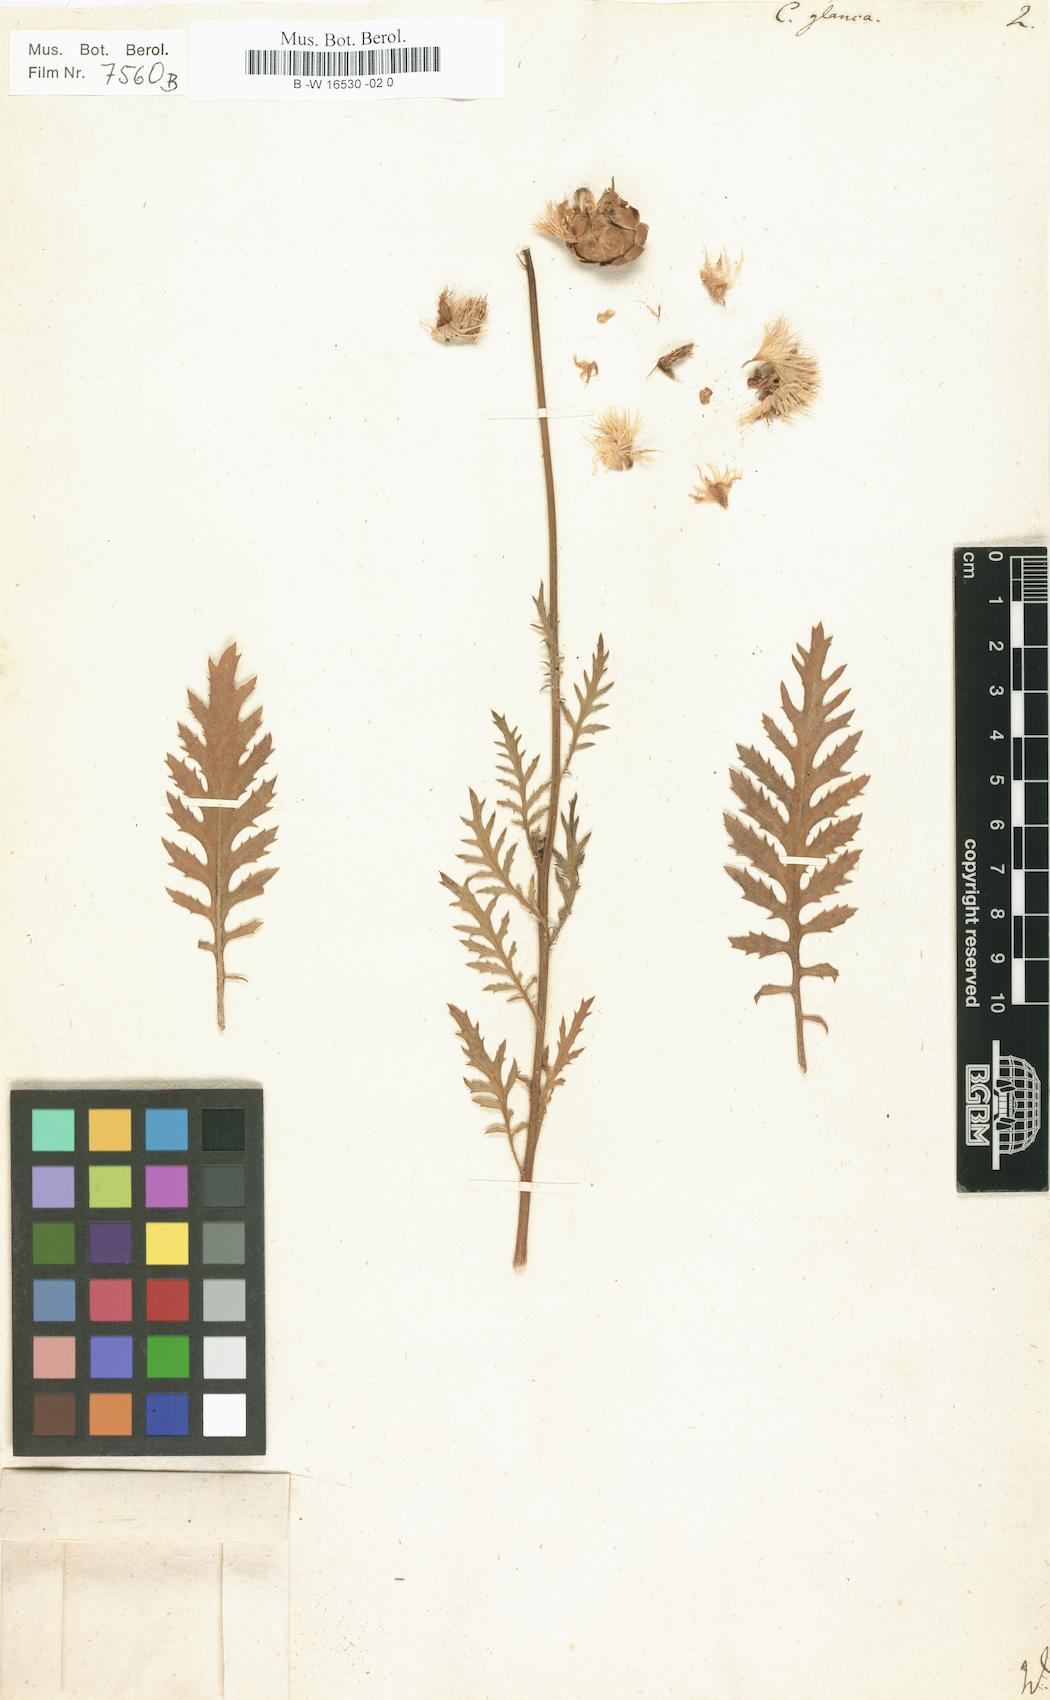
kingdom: Plantae
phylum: Tracheophyta
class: Magnoliopsida
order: Asterales
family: Asteraceae
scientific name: Asteraceae
